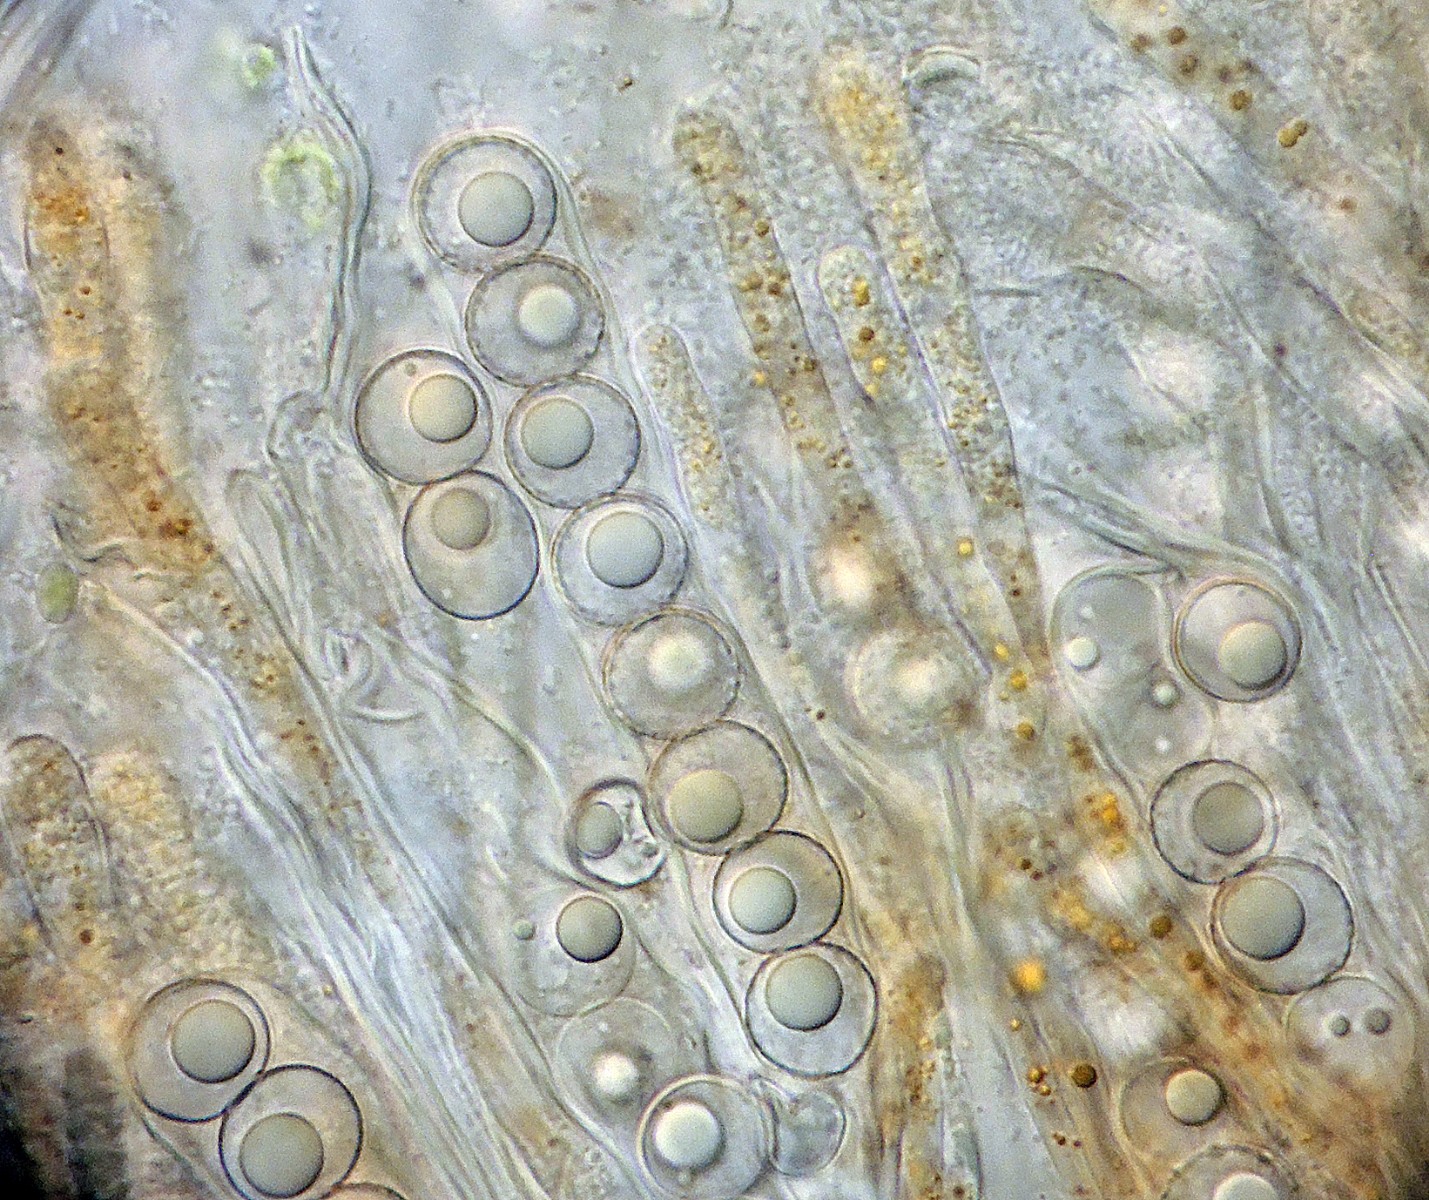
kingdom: Fungi
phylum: Ascomycota
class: Pezizomycetes
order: Pezizales
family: Pyronemataceae
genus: Lamprospora
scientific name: Lamprospora wrightii
